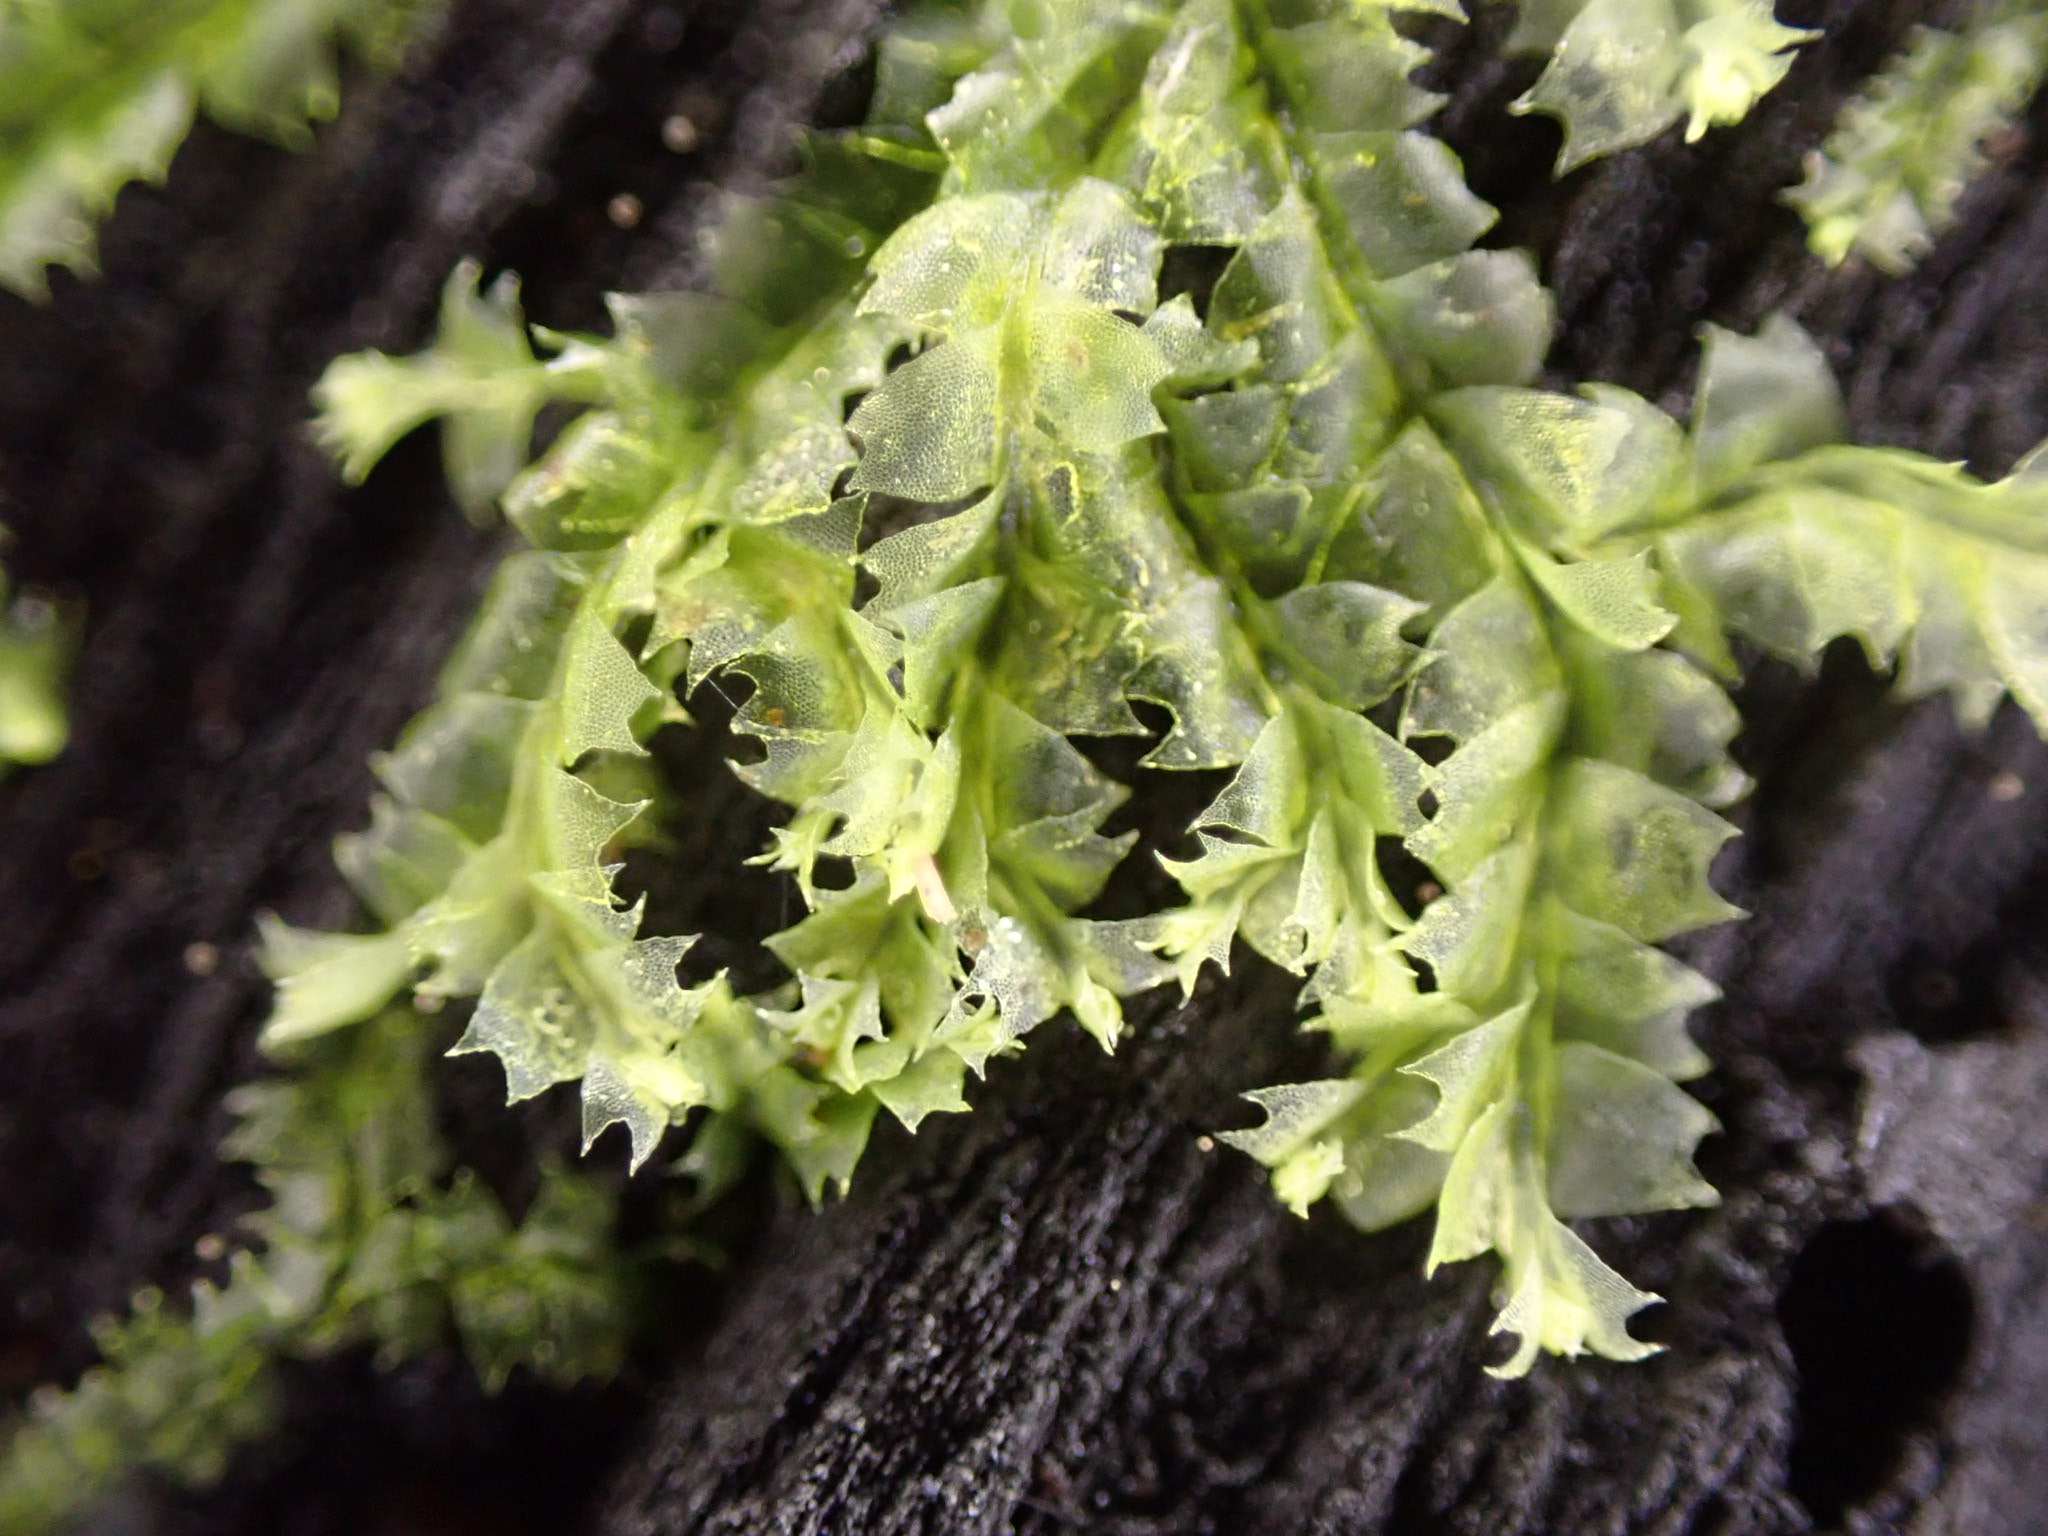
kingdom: Plantae
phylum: Marchantiophyta
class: Jungermanniopsida
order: Jungermanniales
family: Lophocoleaceae
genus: Lophocolea
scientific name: Lophocolea bidentata
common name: Sylspidset kamsvøb
